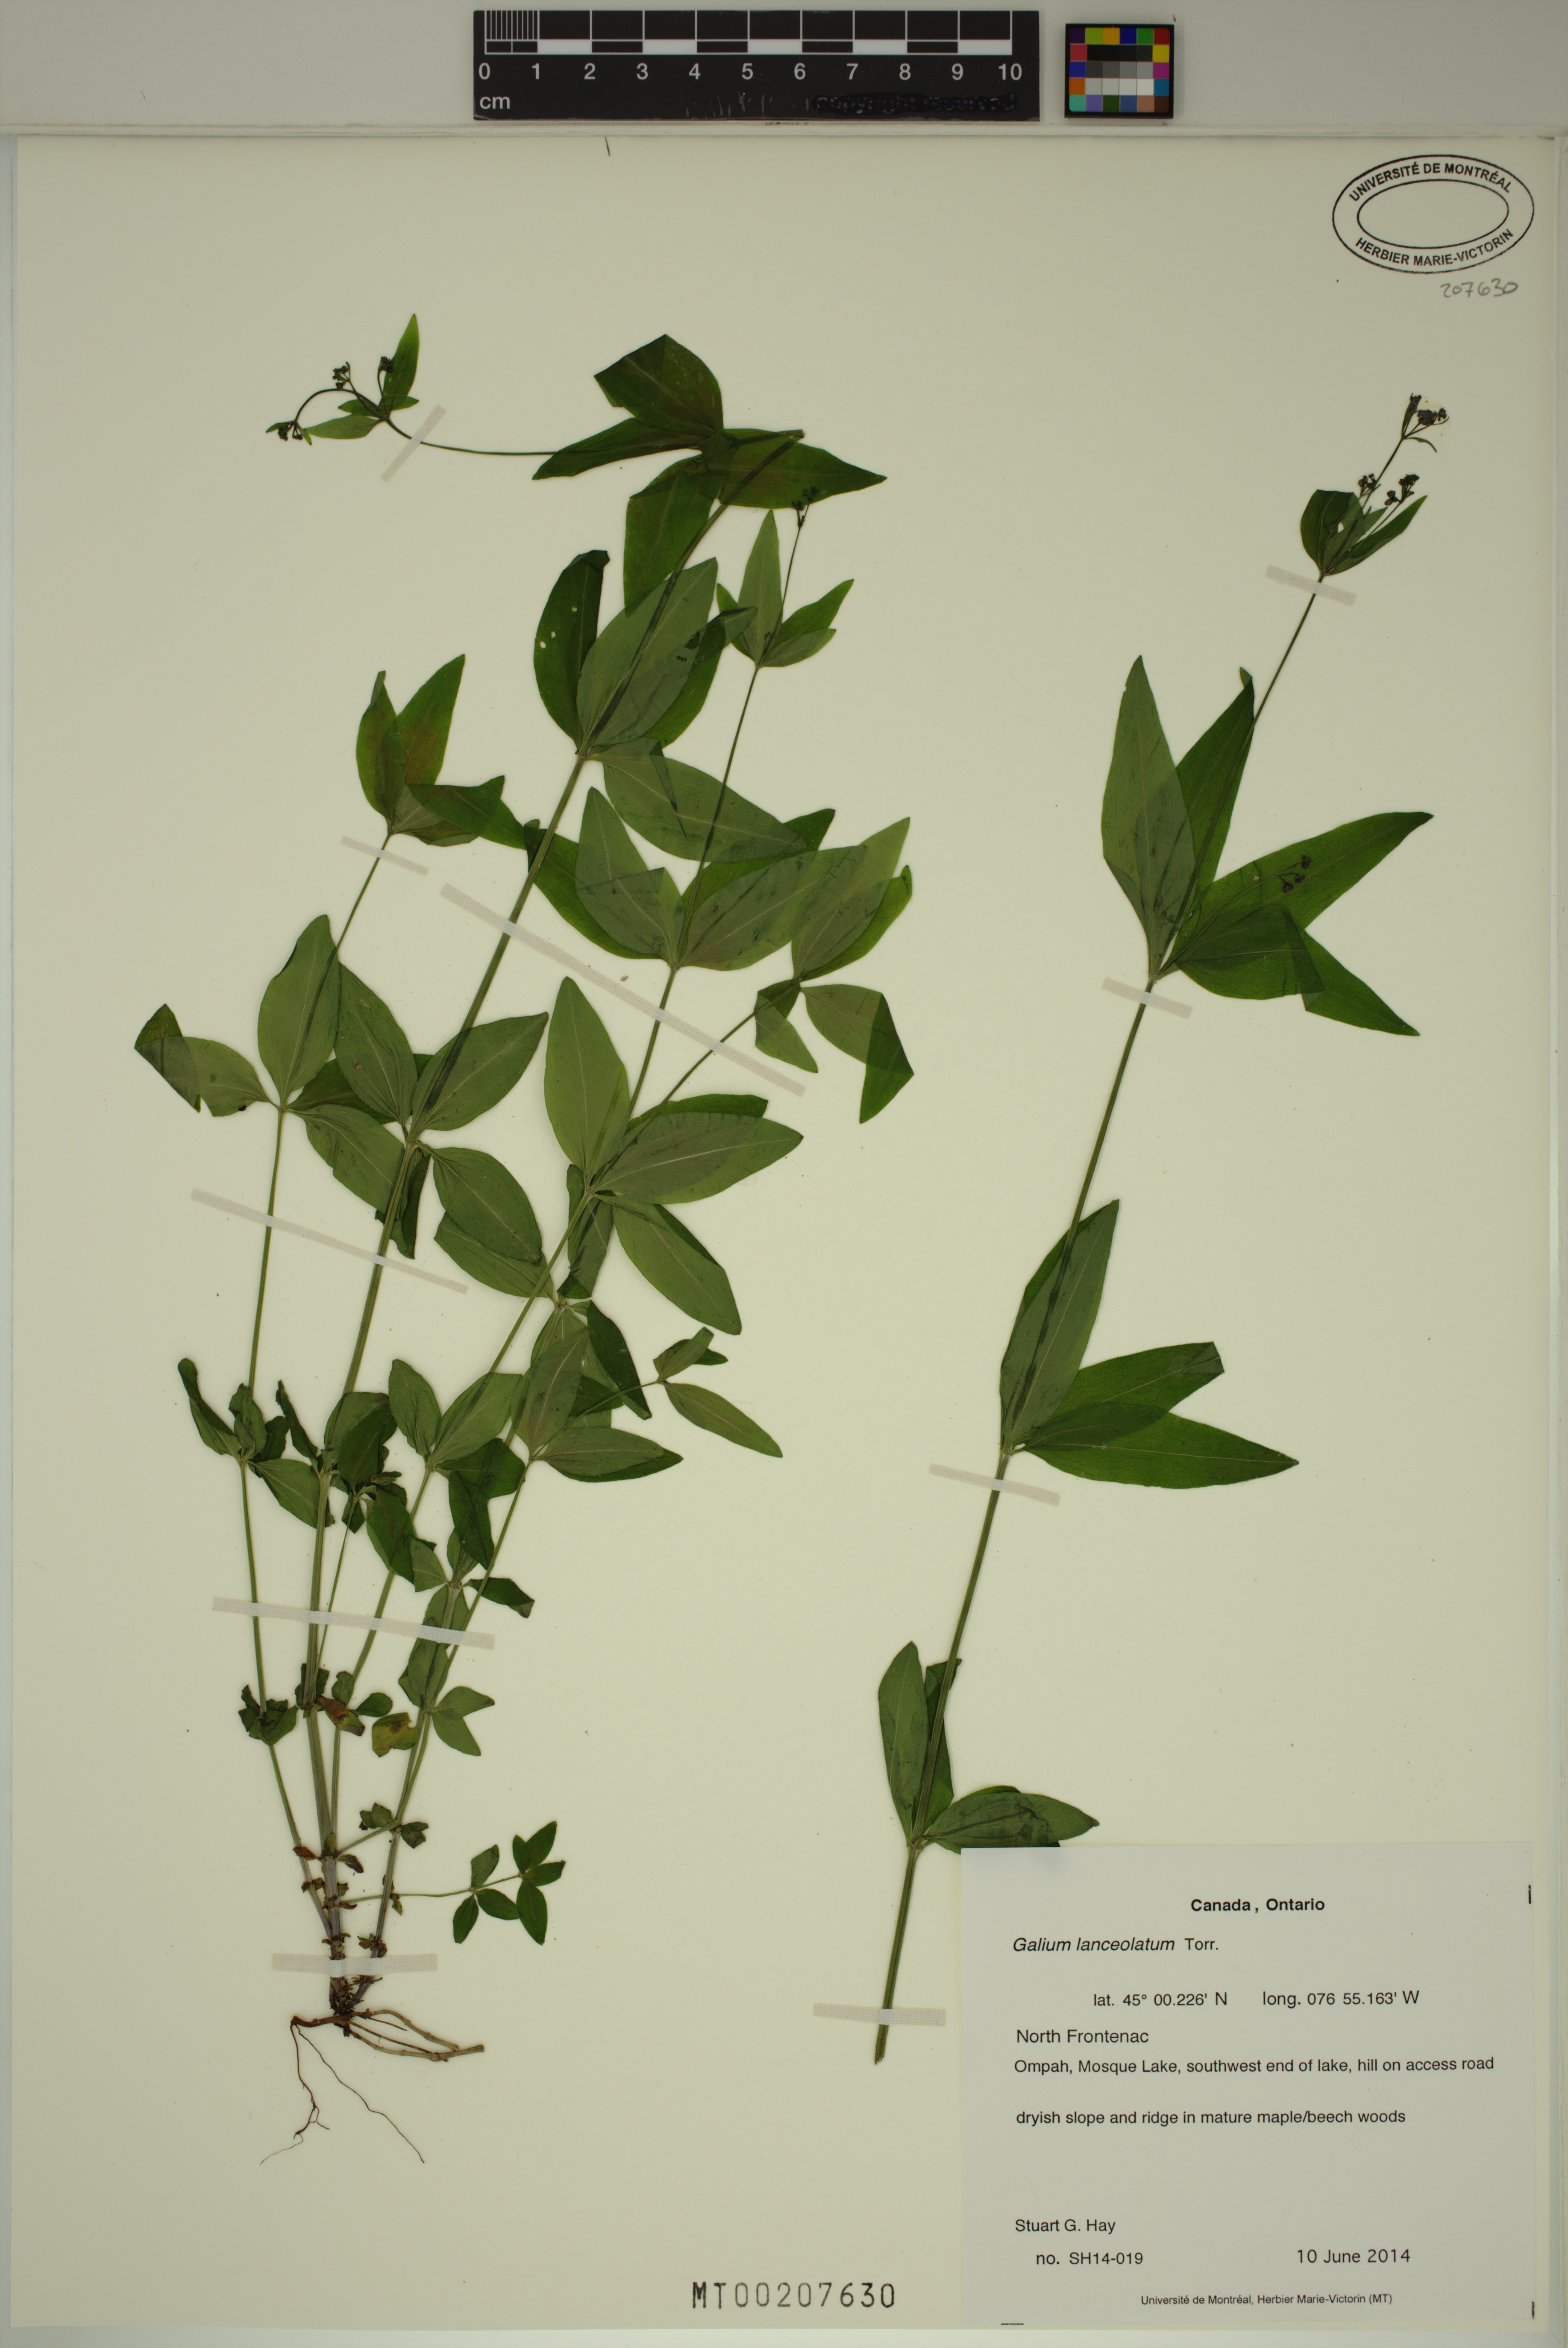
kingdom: Plantae
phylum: Tracheophyta
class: Magnoliopsida
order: Gentianales
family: Rubiaceae
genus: Galium
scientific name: Galium lanceolatum
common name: Lance-leaved wild licorice
